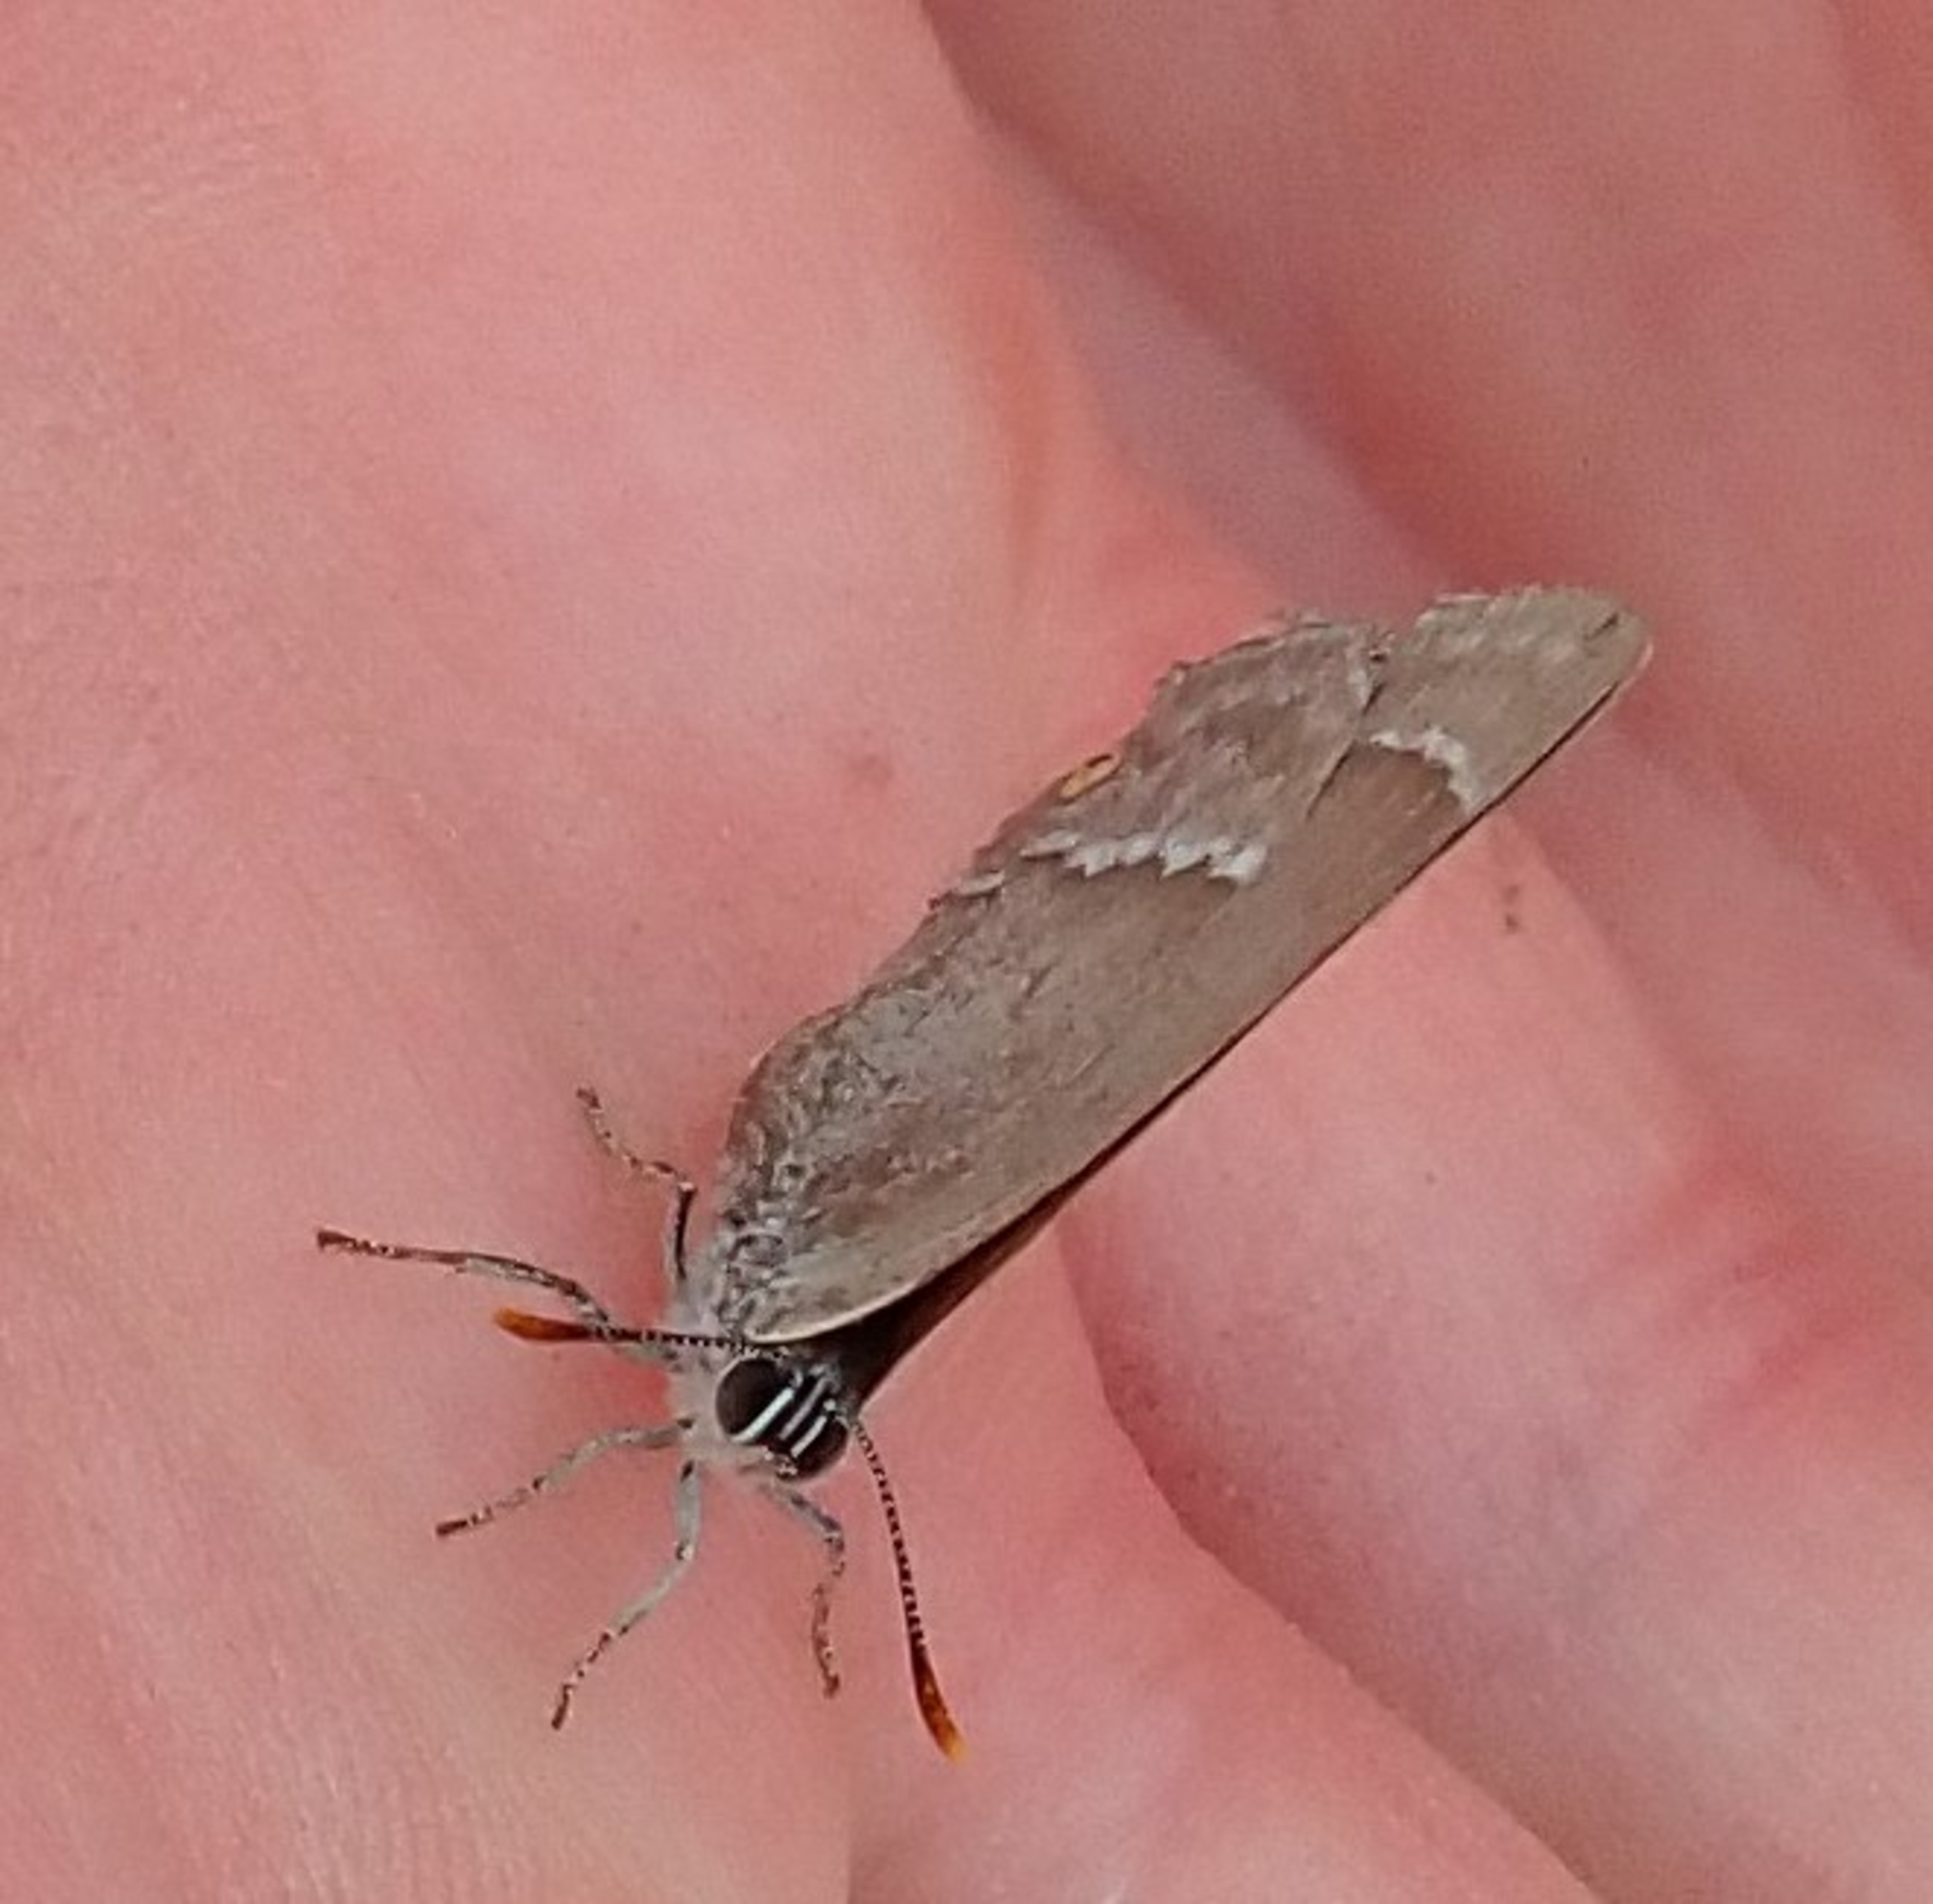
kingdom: Animalia
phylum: Arthropoda
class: Insecta
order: Lepidoptera
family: Lycaenidae
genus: Quercusia
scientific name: Quercusia quercus
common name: Blåhale
